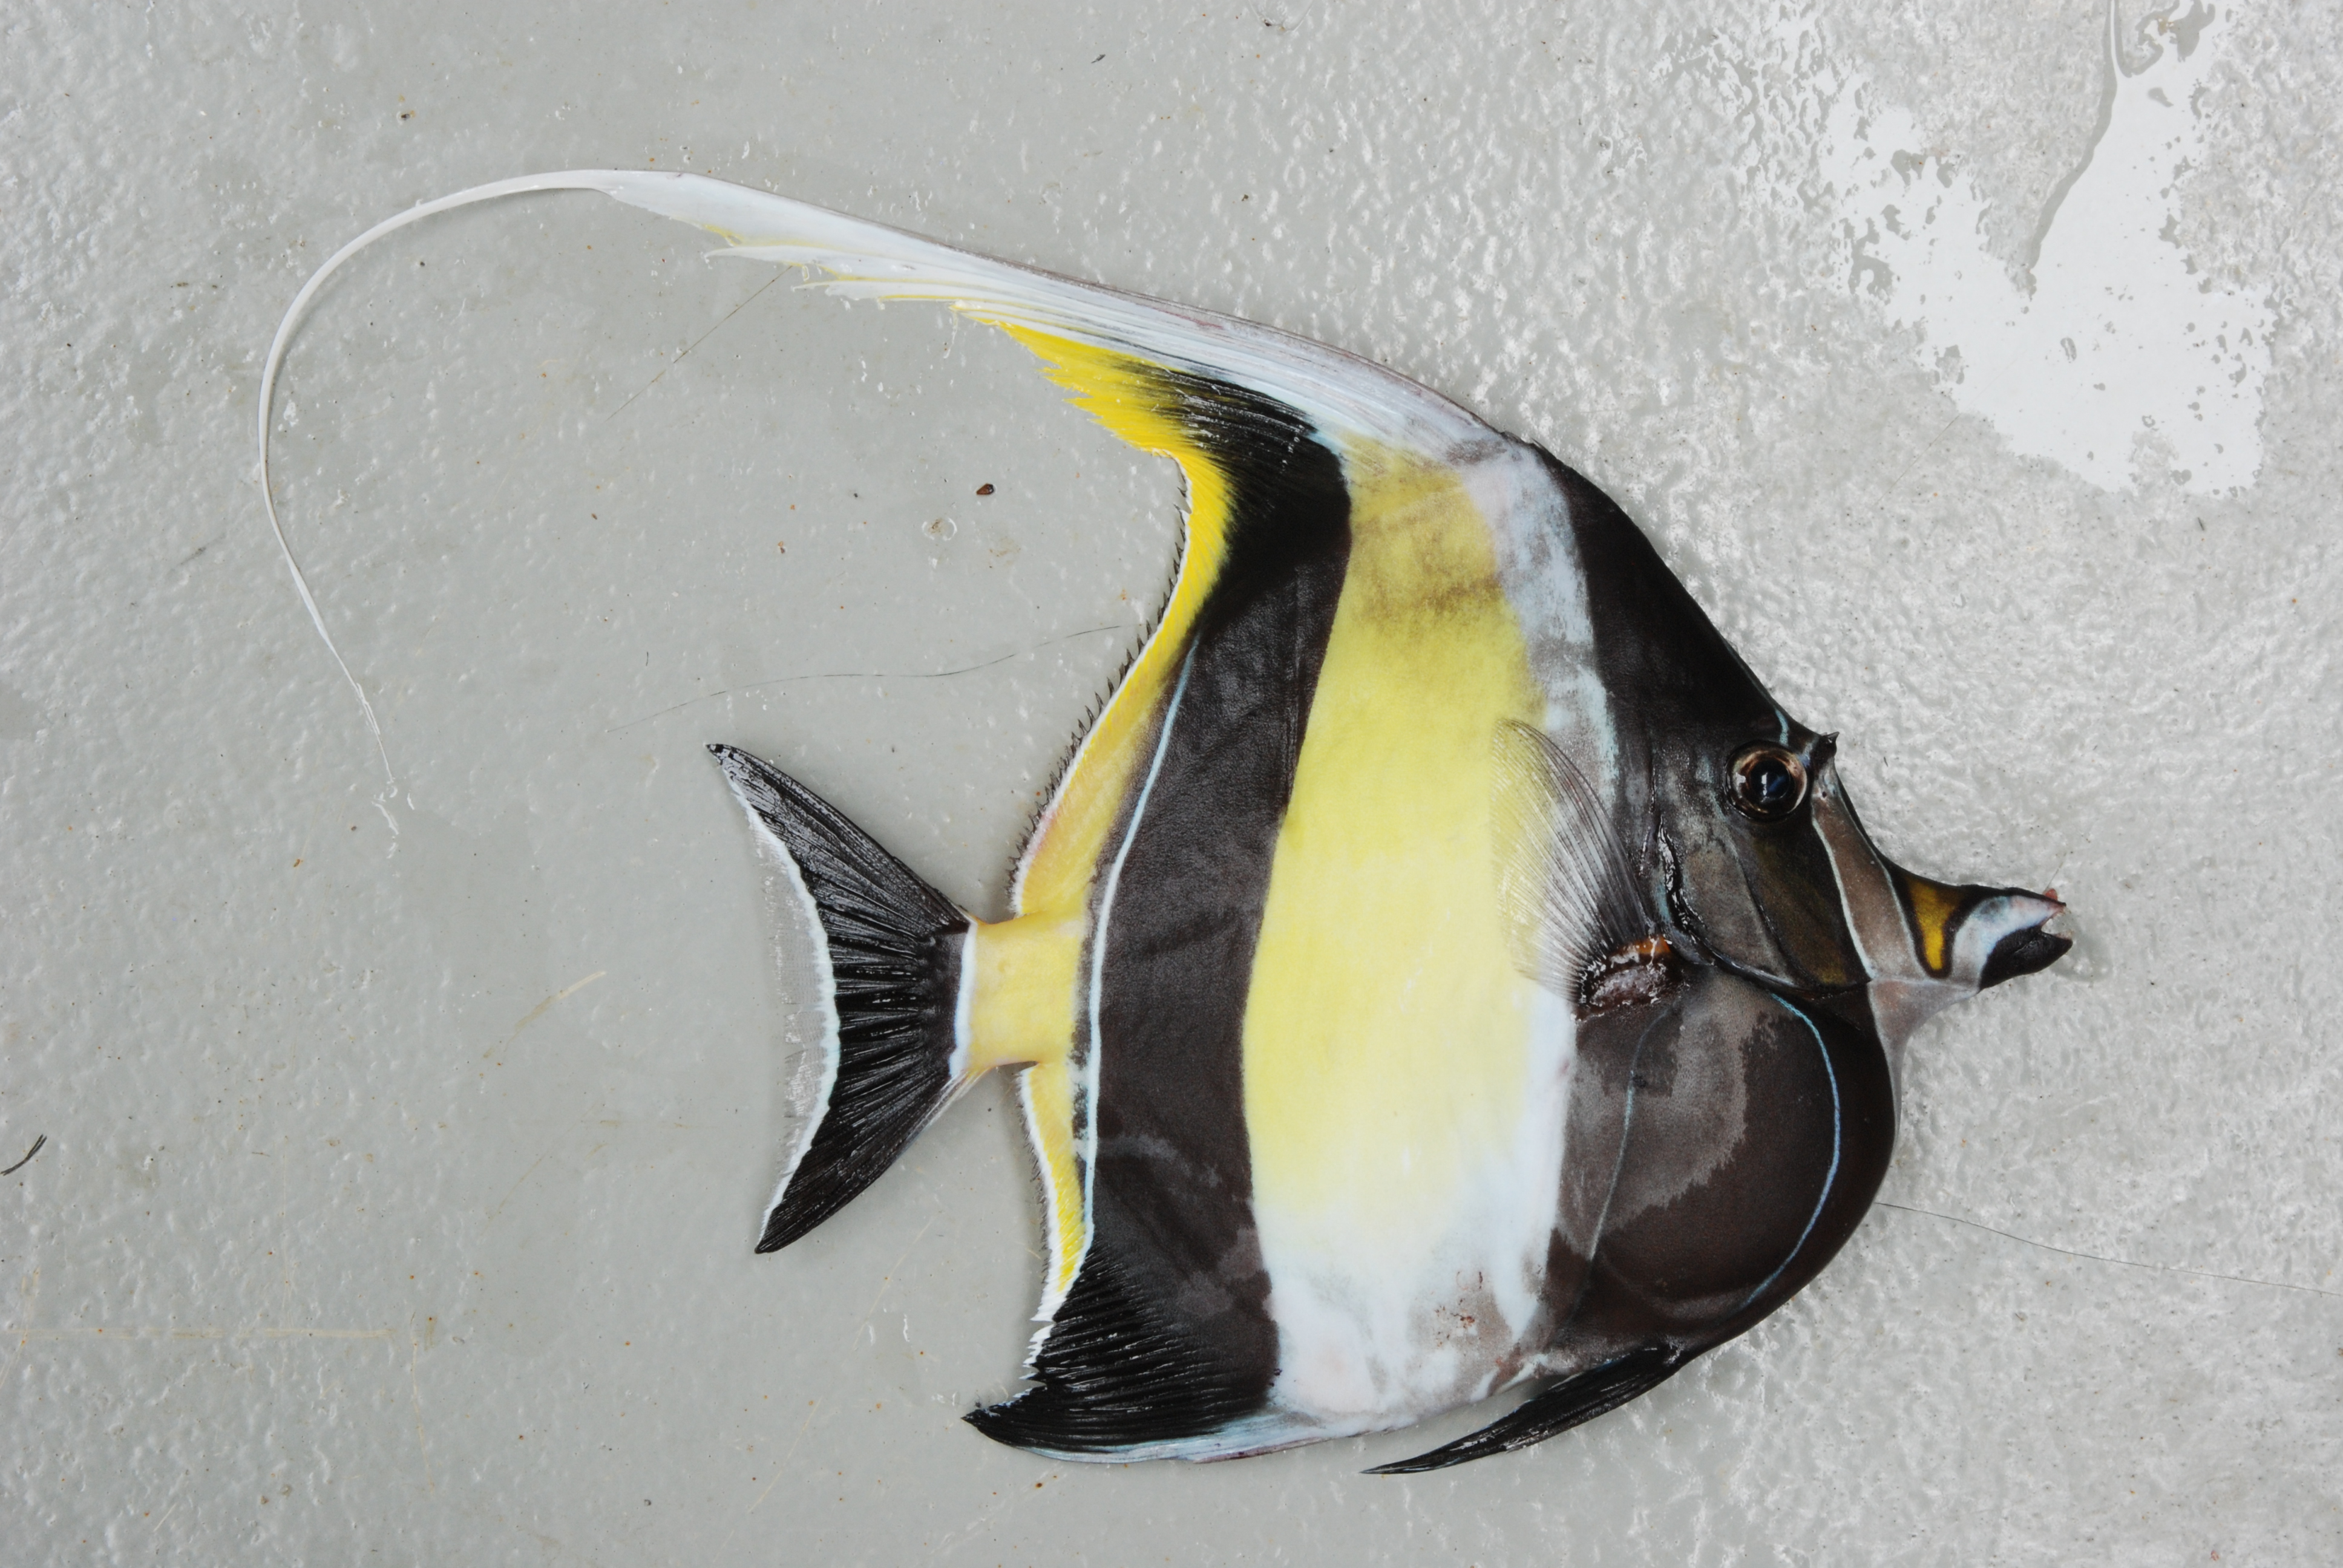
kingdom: Animalia
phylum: Chordata
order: Perciformes
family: Zanclidae
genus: Zanclus
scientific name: Zanclus cornutus
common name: Moorish idol
